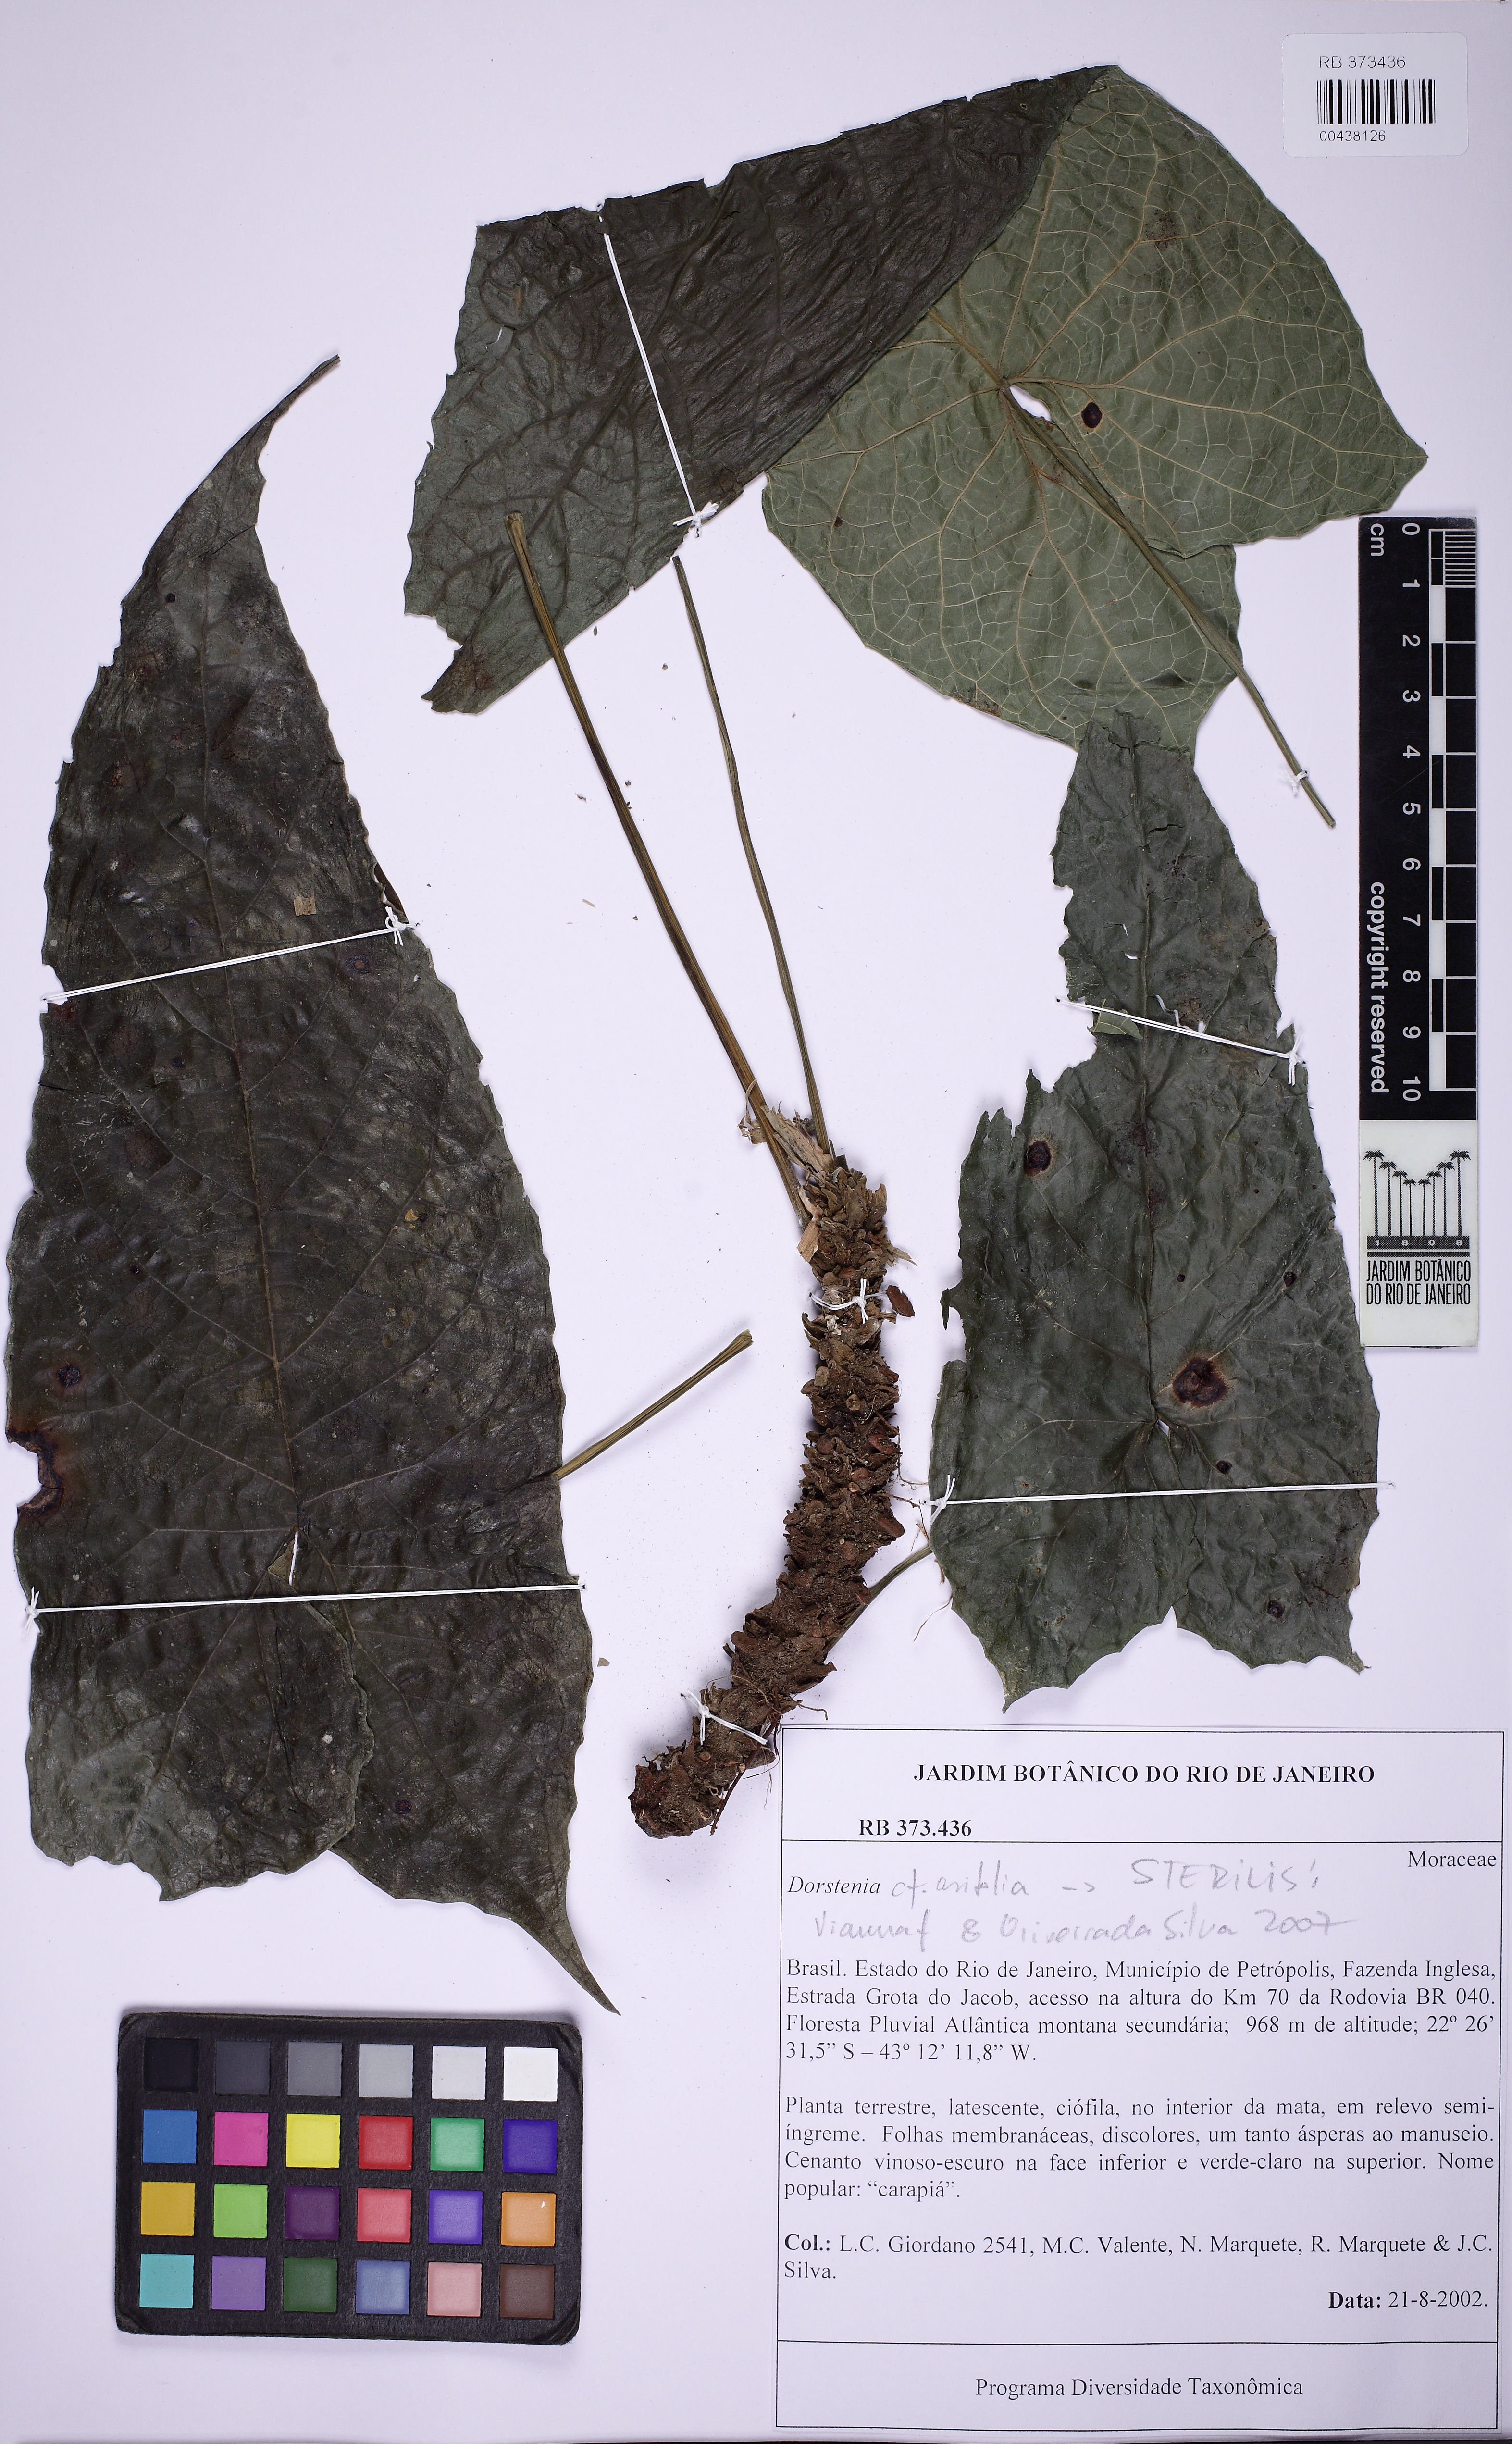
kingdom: Plantae
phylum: Tracheophyta
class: Magnoliopsida
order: Rosales
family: Moraceae
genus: Dorstenia
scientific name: Dorstenia arifolia
